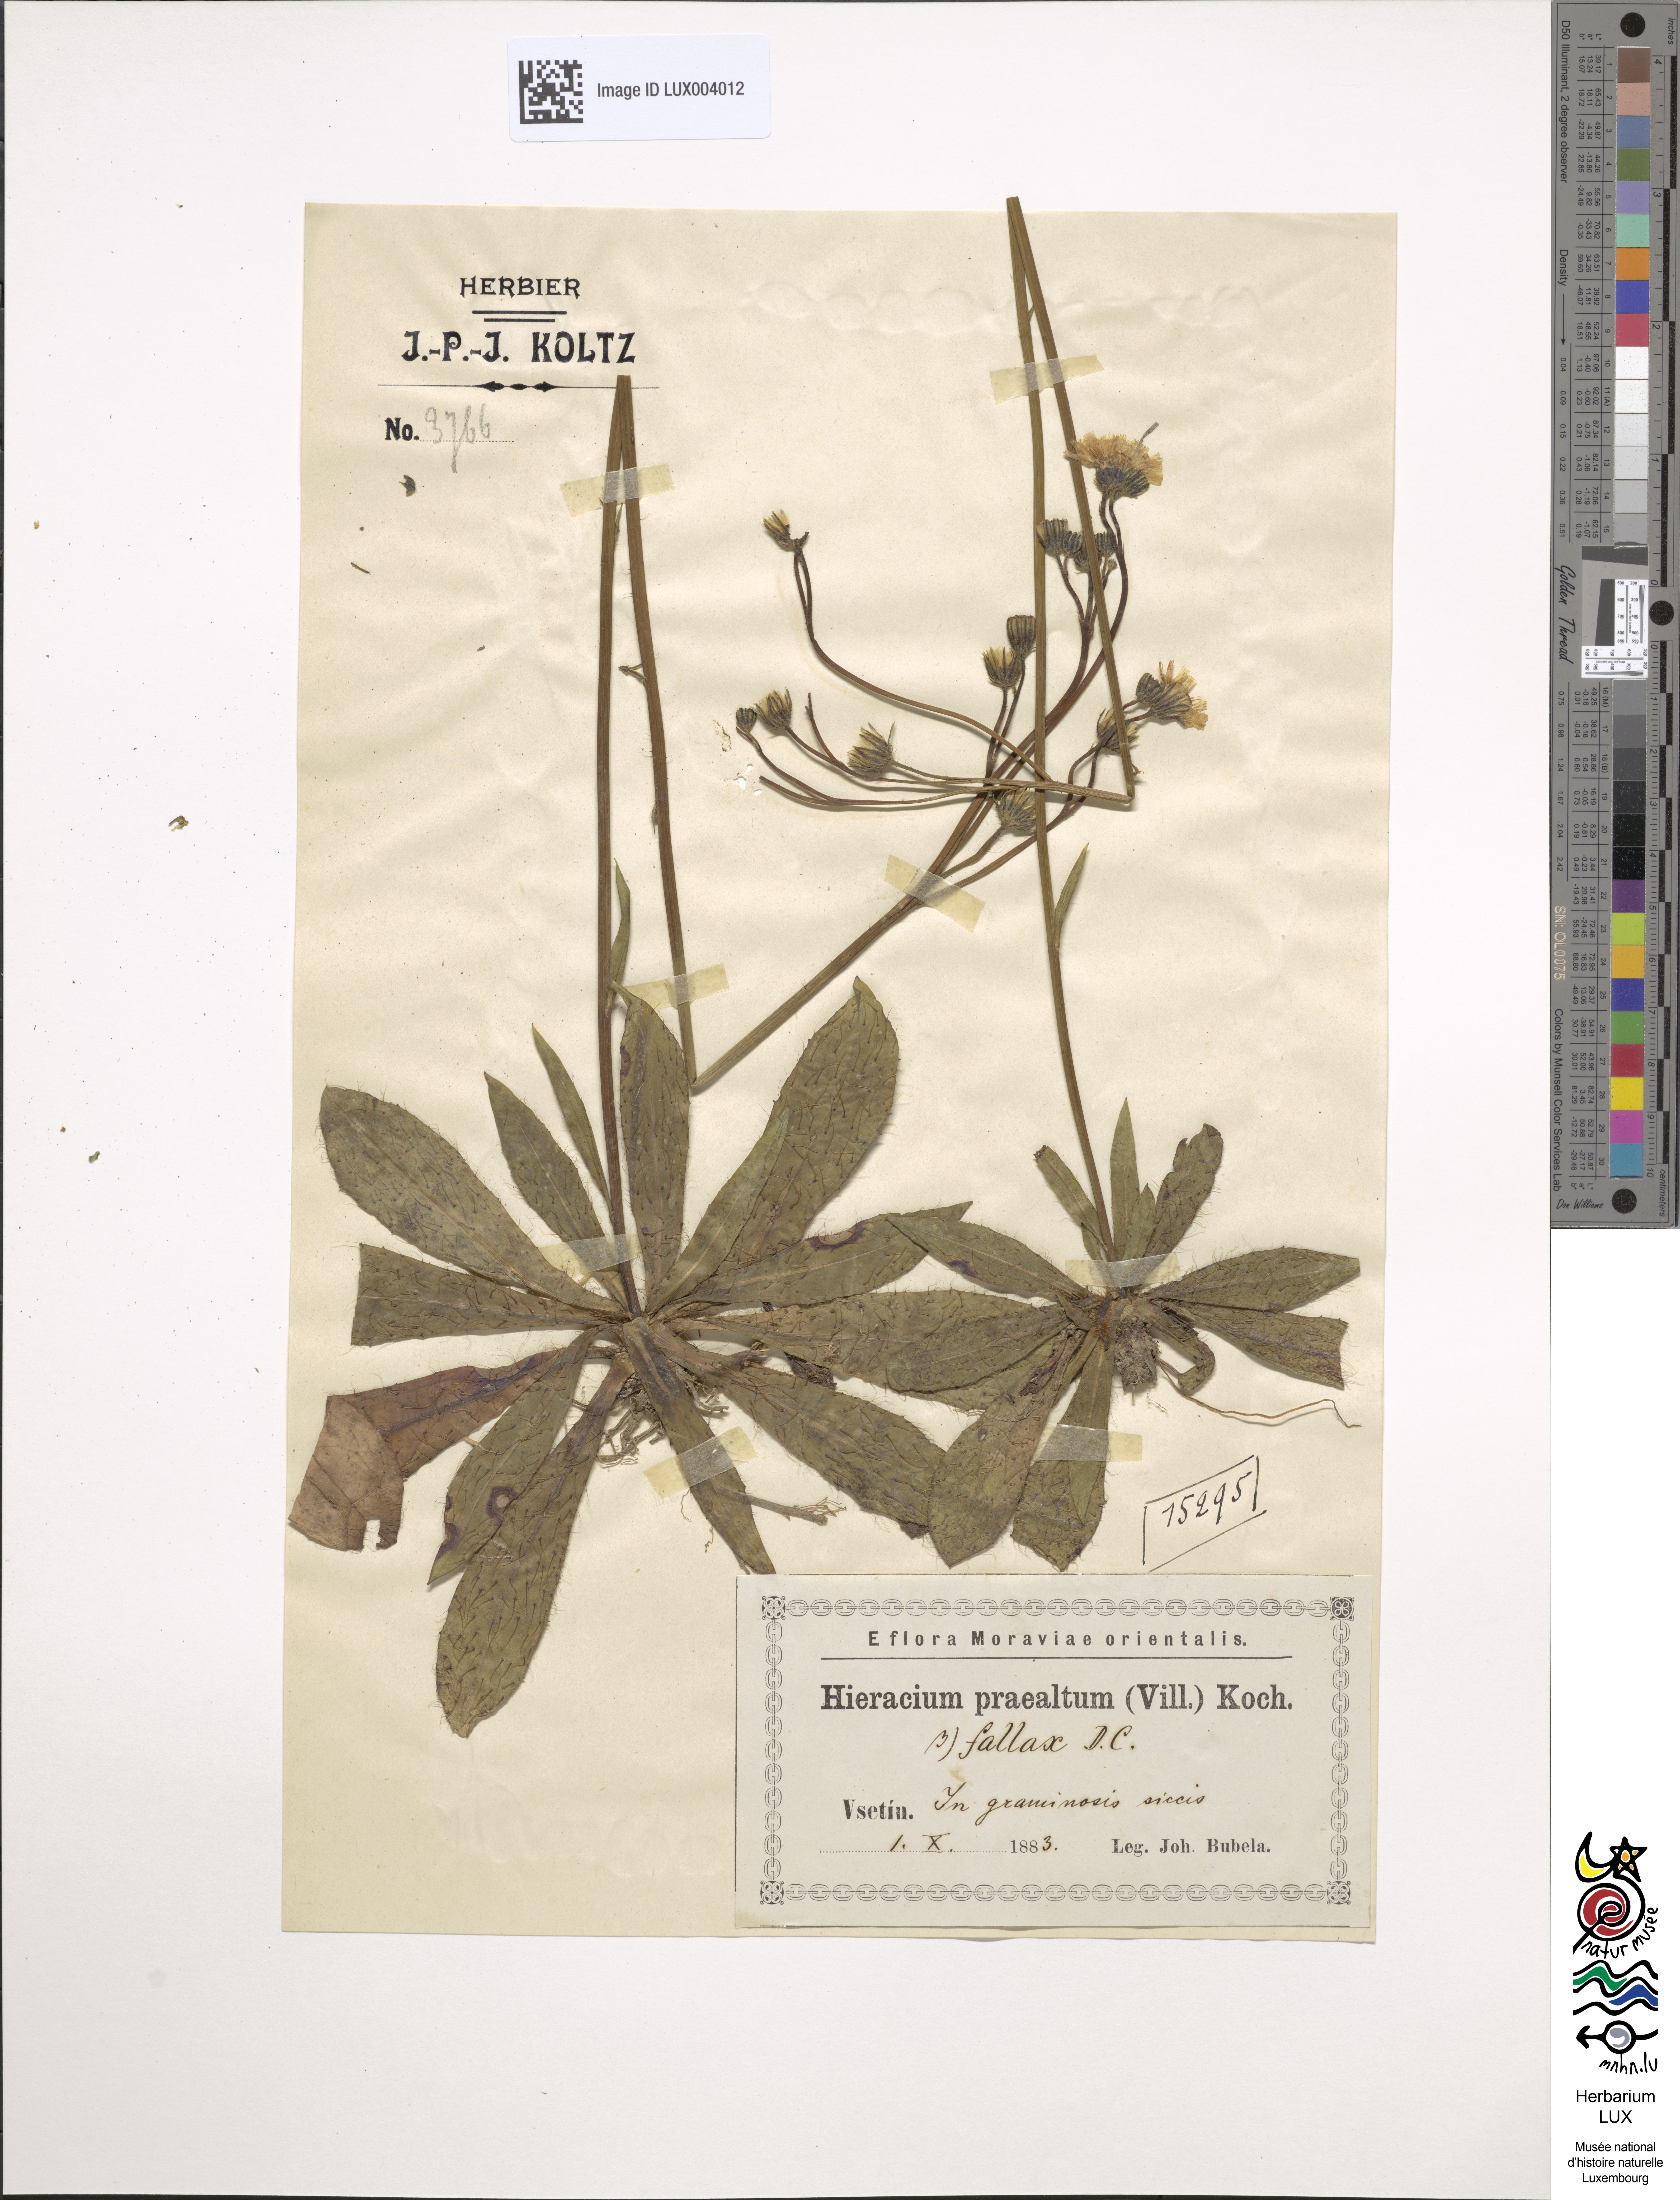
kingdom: Plantae
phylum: Tracheophyta
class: Magnoliopsida
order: Asterales
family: Asteraceae
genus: Hieracium
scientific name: Hieracium piloselloides
